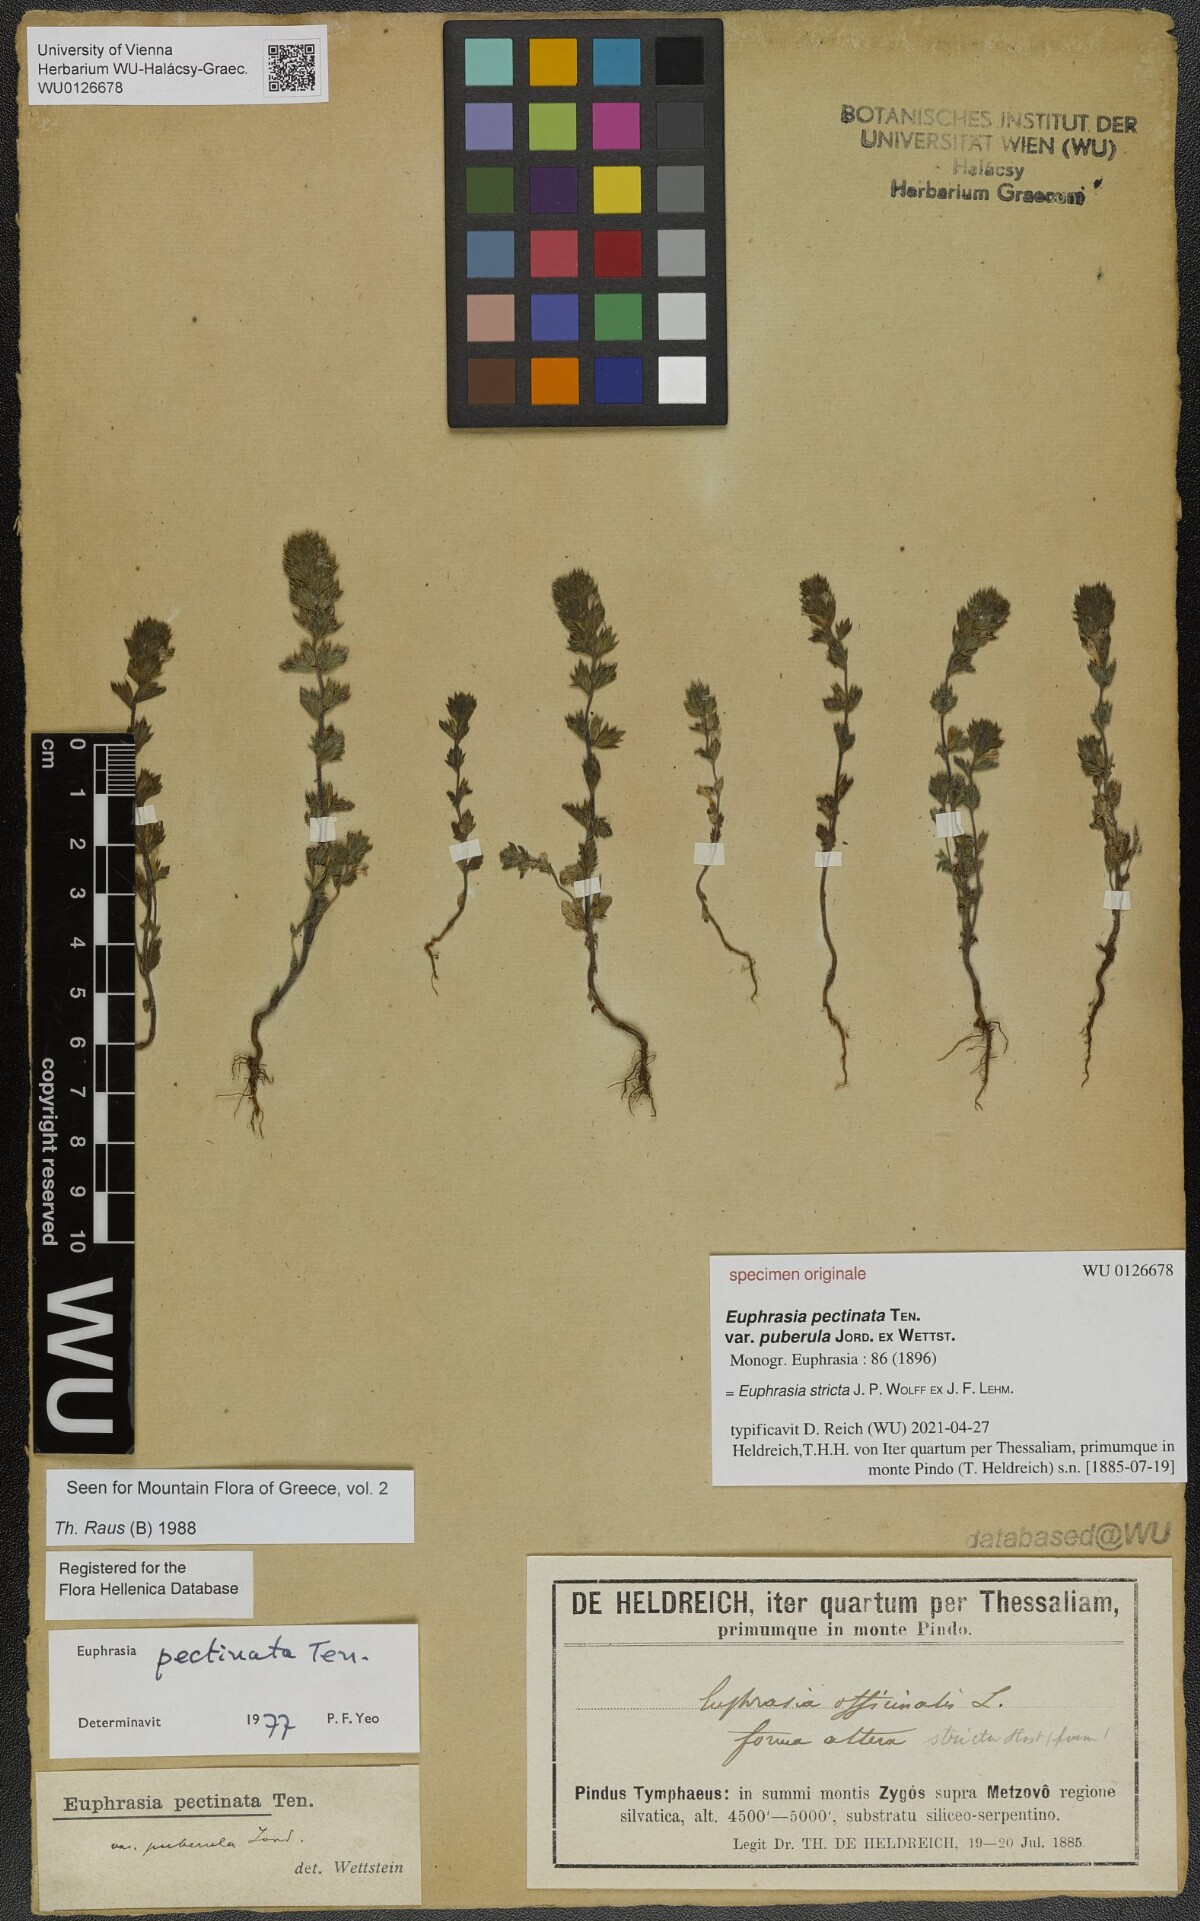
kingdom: Plantae
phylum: Tracheophyta
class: Magnoliopsida
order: Lamiales
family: Orobanchaceae
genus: Euphrasia
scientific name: Euphrasia officinalis
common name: Eyebright
